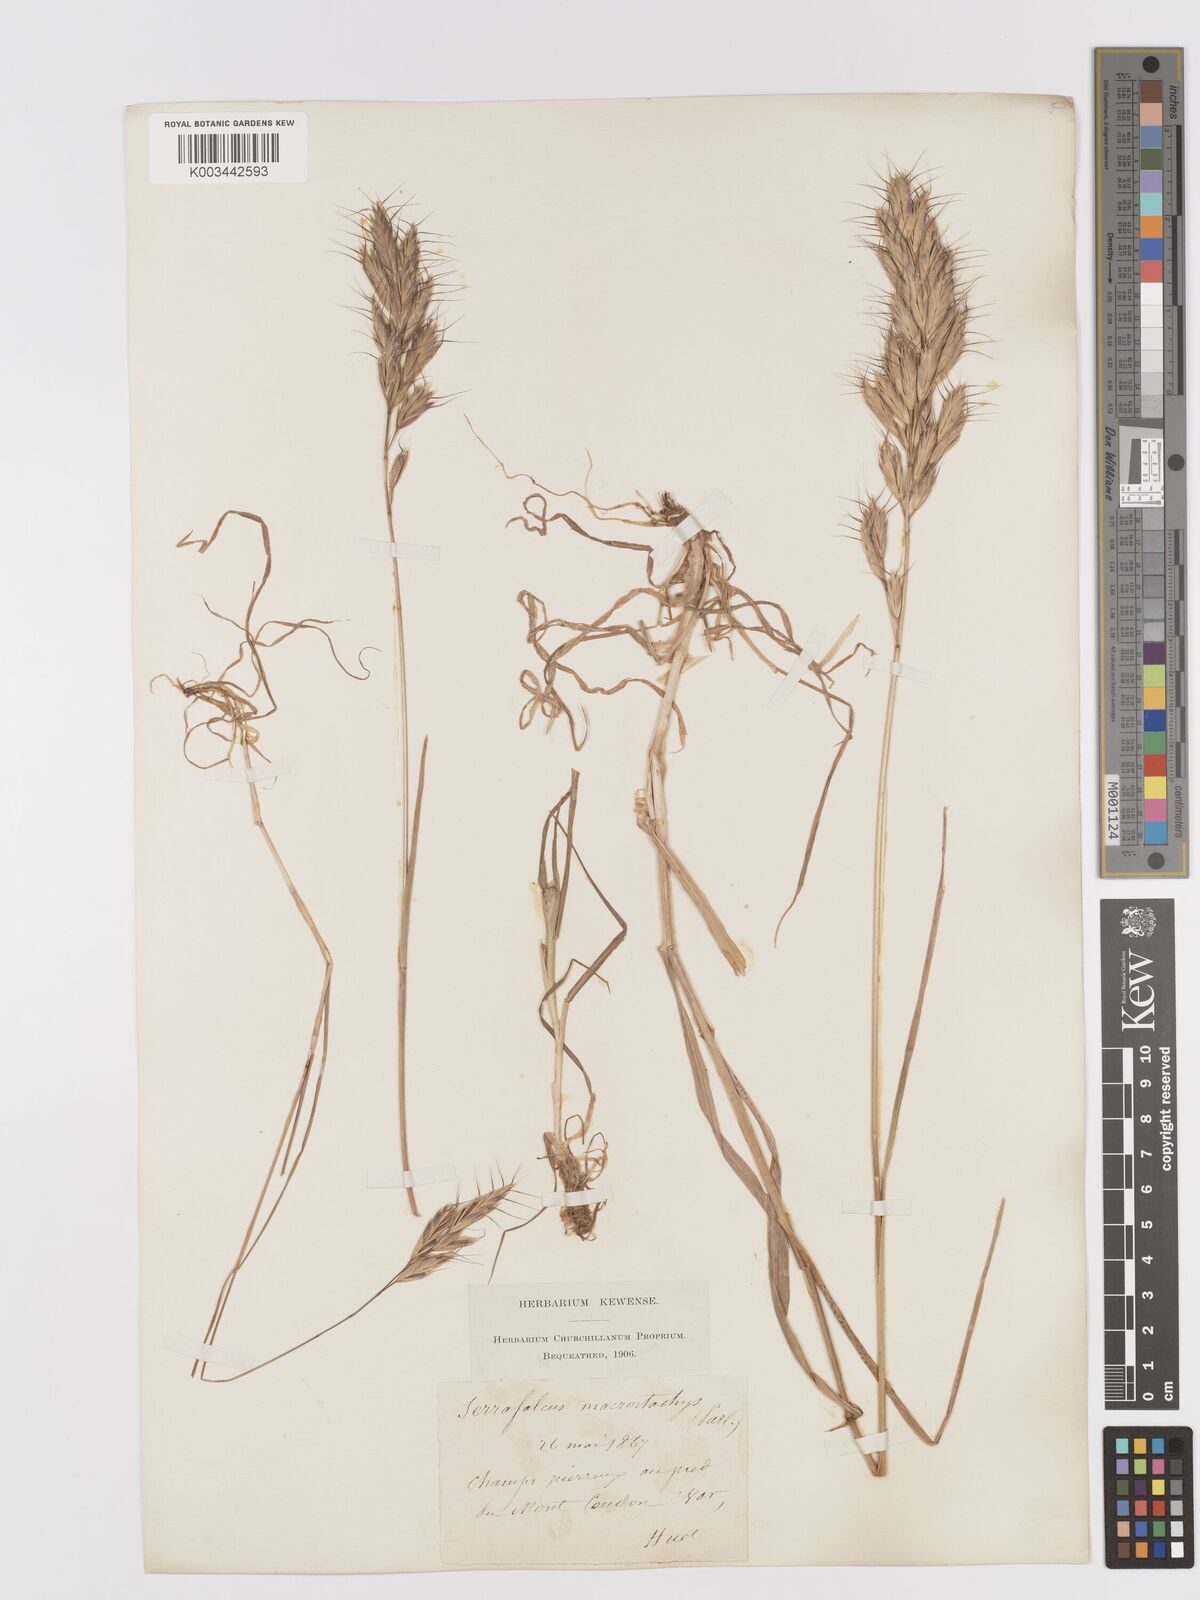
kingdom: Plantae
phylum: Tracheophyta
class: Liliopsida
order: Poales
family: Poaceae
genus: Bromus
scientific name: Bromus lanceolatus
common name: Mediterranean brome
